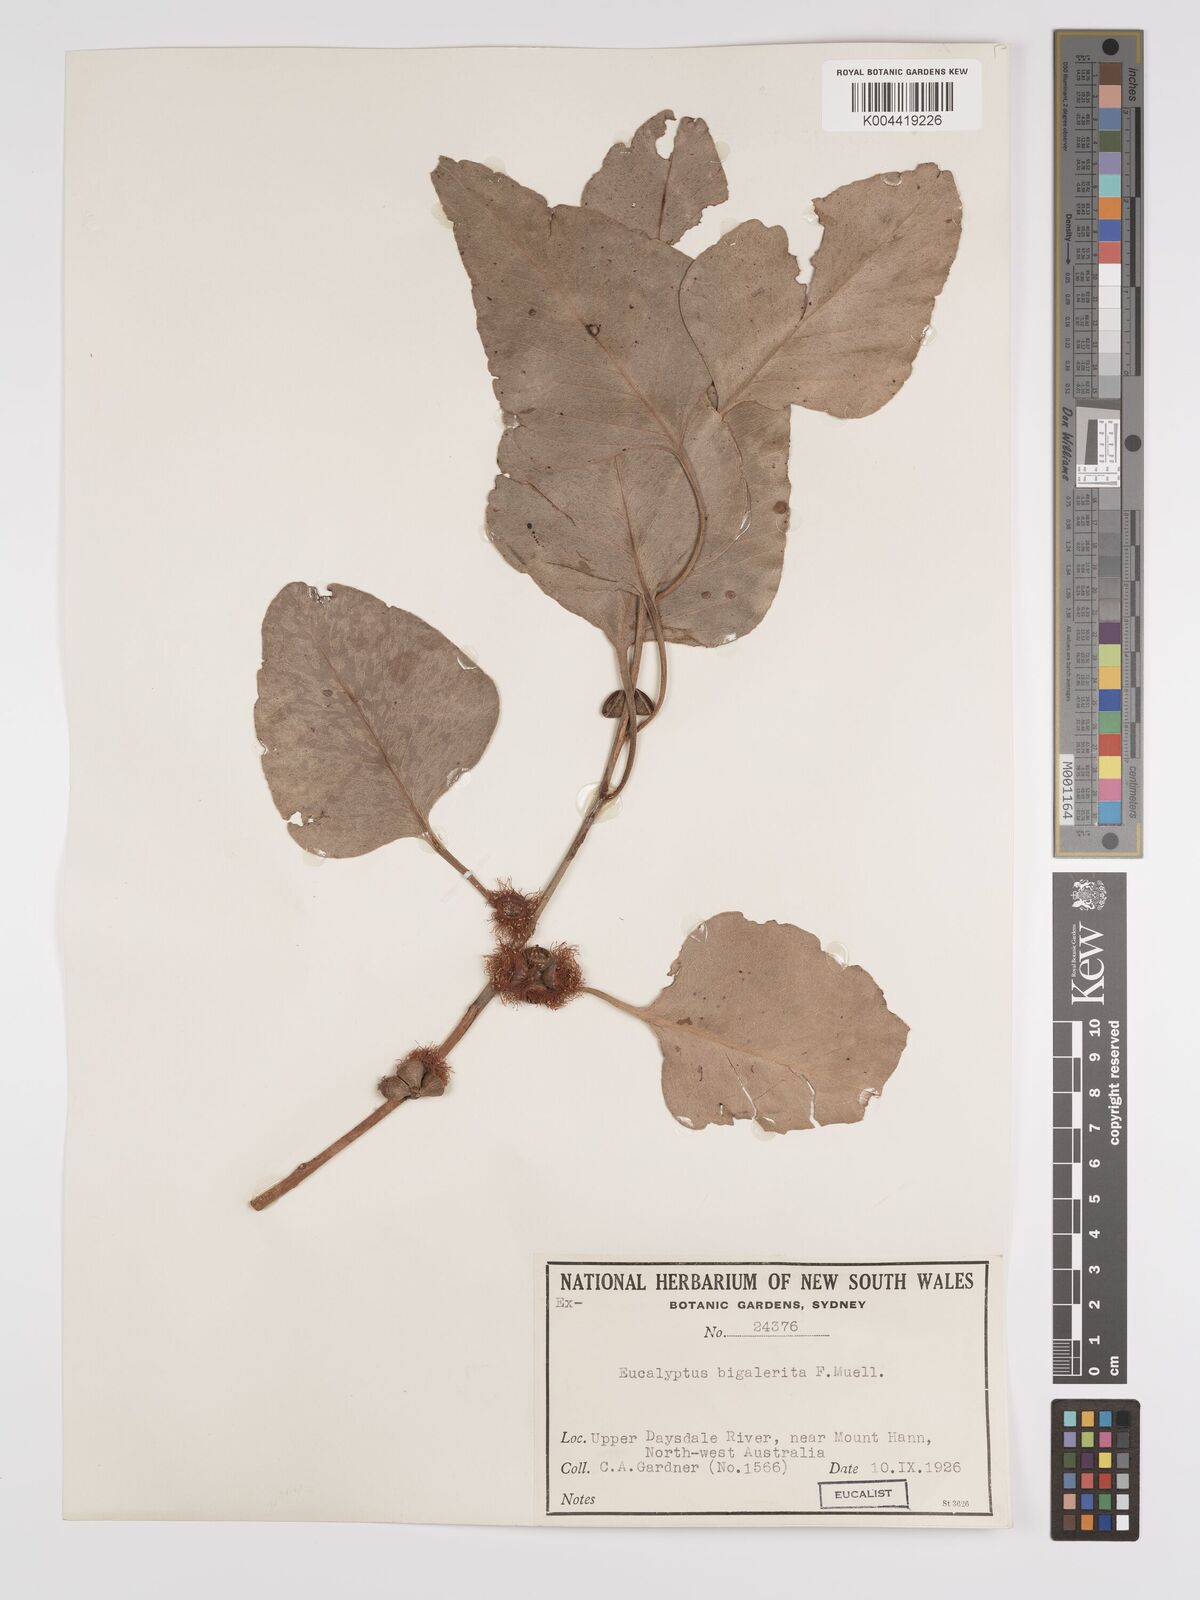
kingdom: Plantae
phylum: Tracheophyta
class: Magnoliopsida
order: Myrtales
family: Myrtaceae
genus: Eucalyptus
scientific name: Eucalyptus bigalerita
